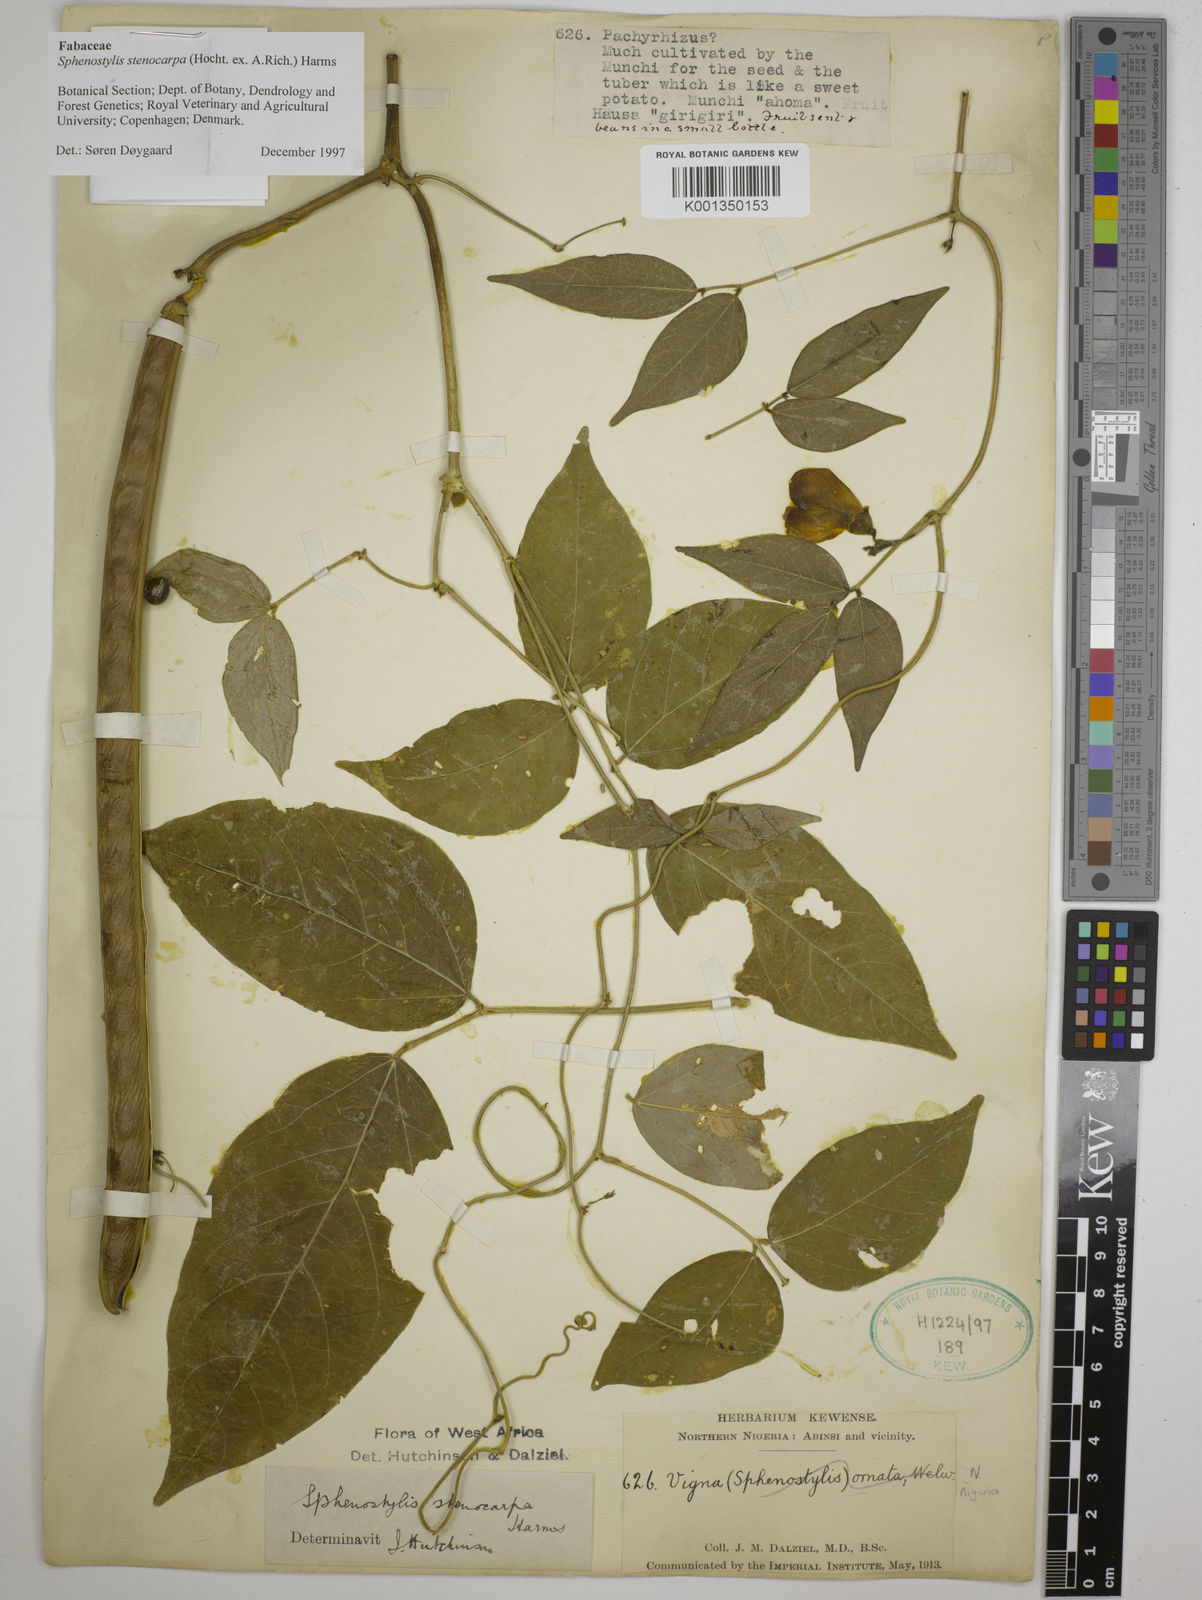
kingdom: Plantae
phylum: Tracheophyta
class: Magnoliopsida
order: Fabales
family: Fabaceae
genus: Sphenostylis
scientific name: Sphenostylis stenocarpa
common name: Yam-pea
